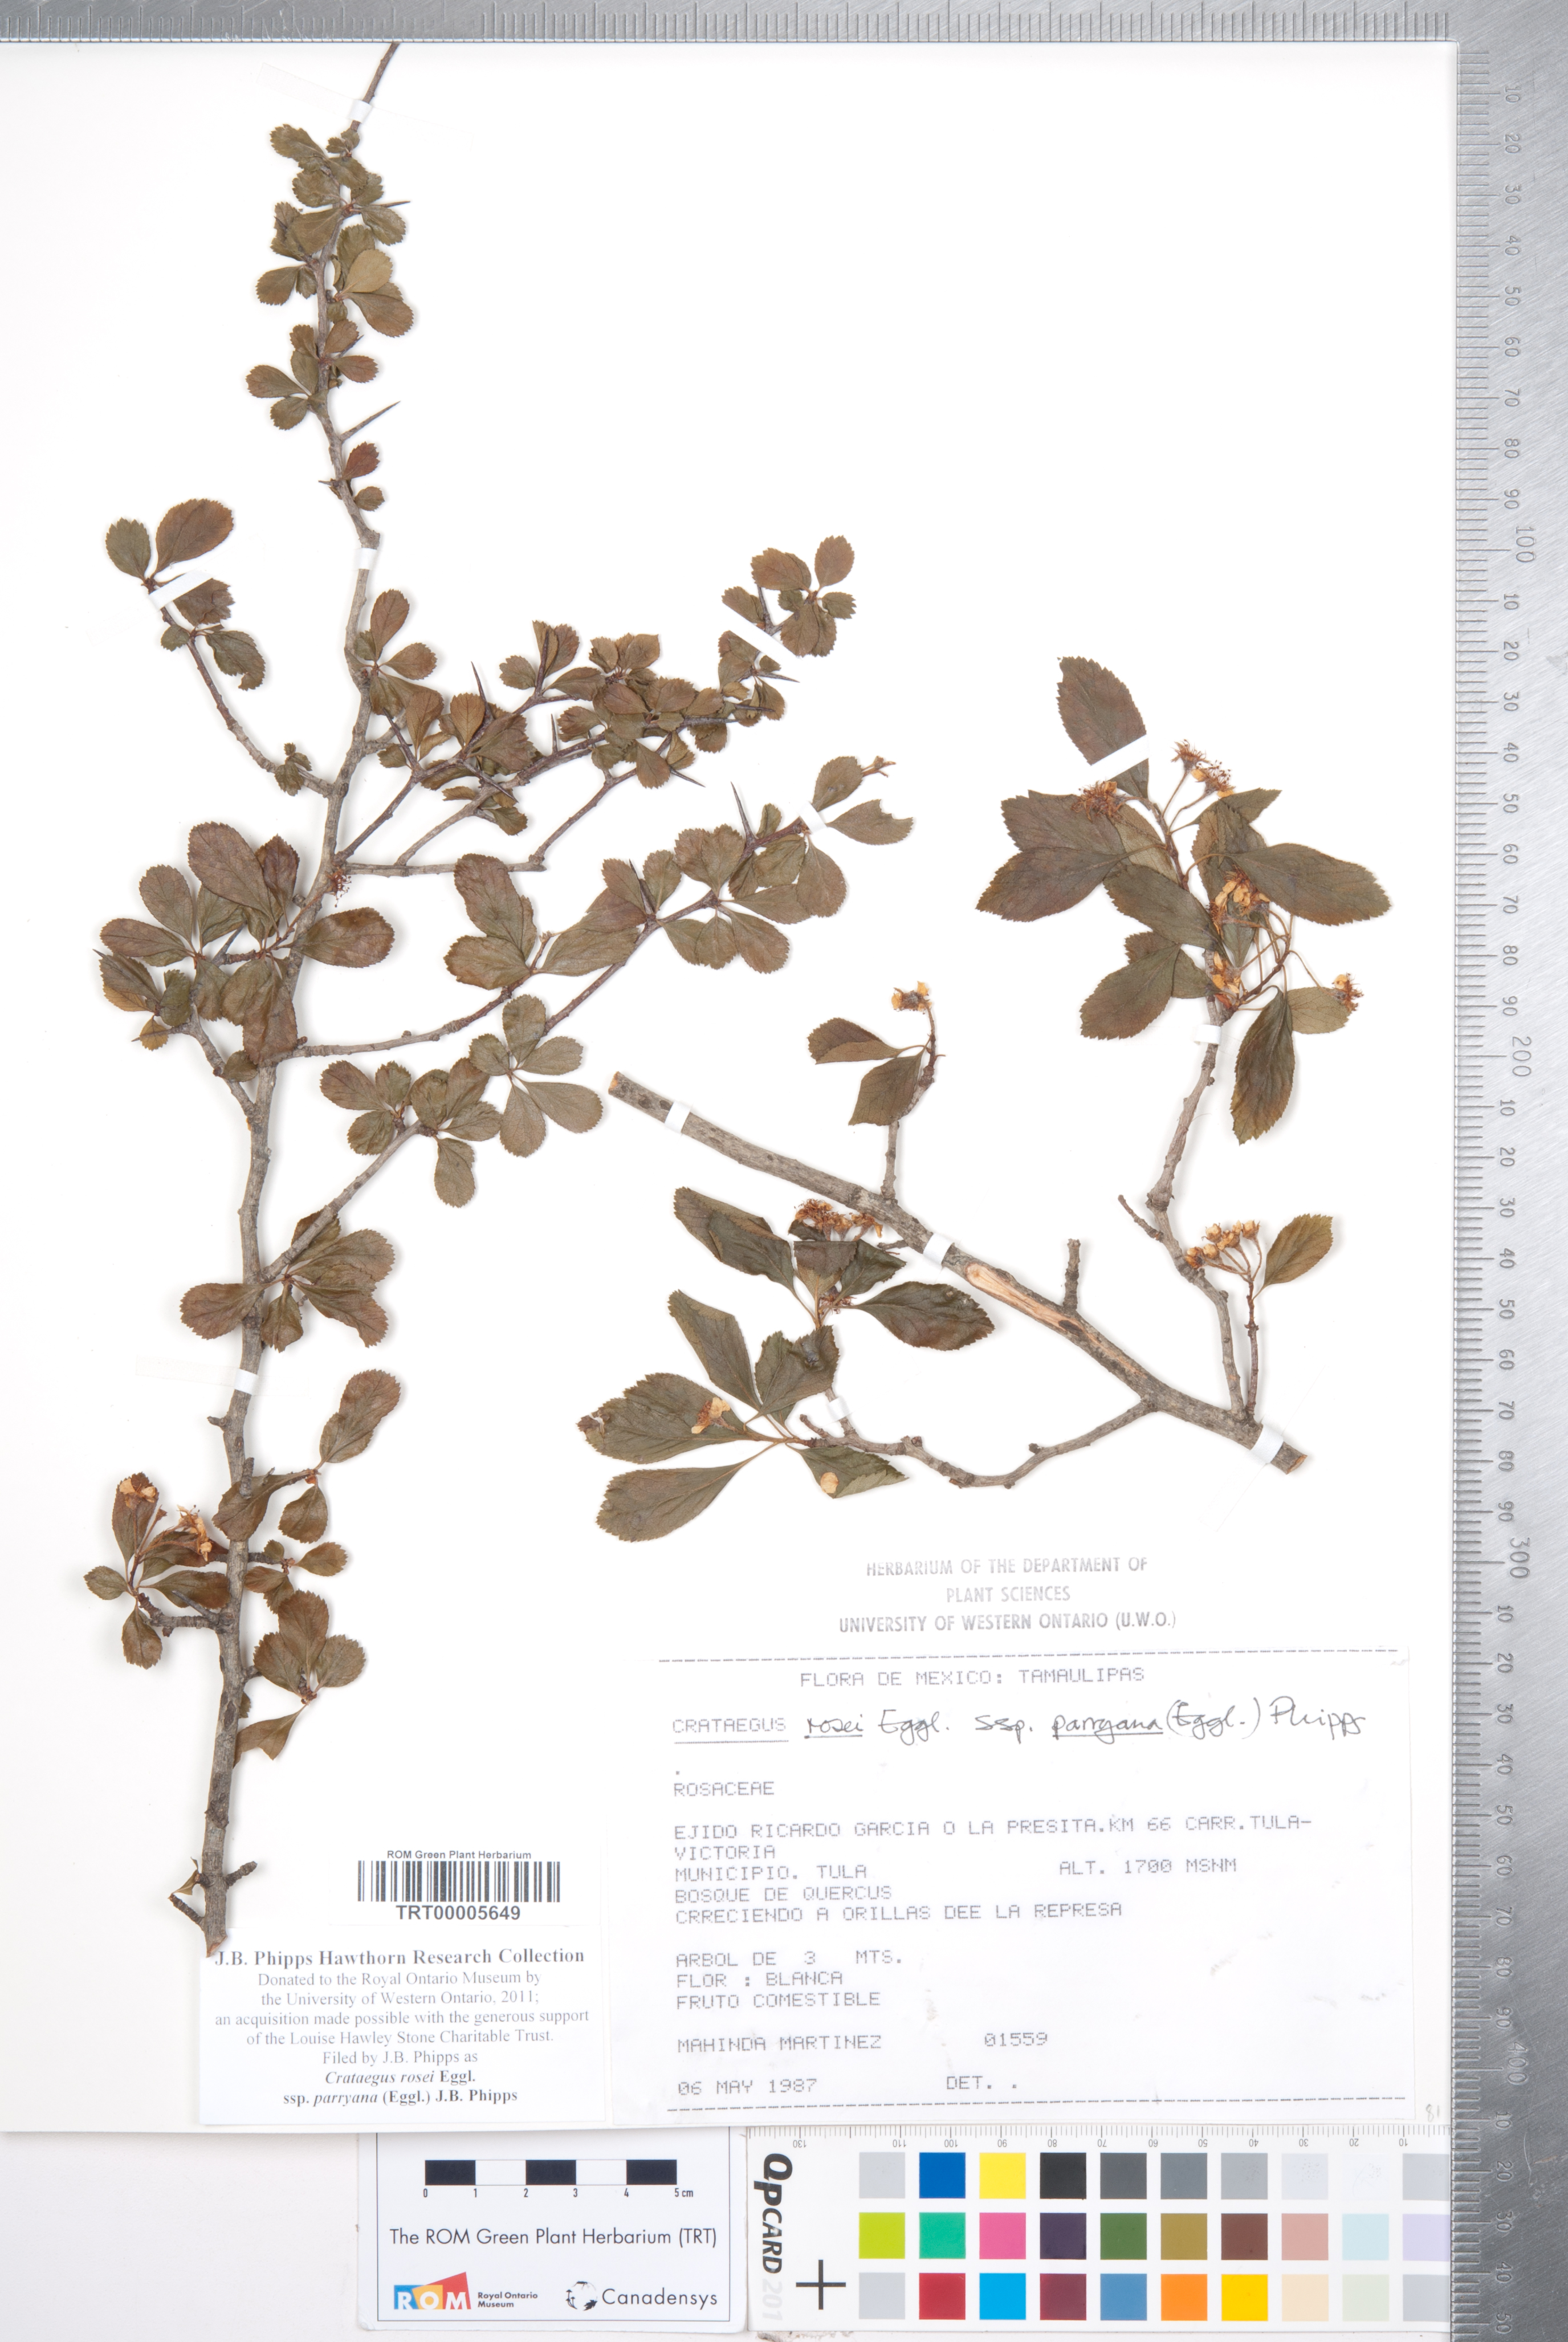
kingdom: Plantae
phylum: Tracheophyta
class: Magnoliopsida
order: Rosales
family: Rosaceae
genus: Crataegus
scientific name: Crataegus rosei
